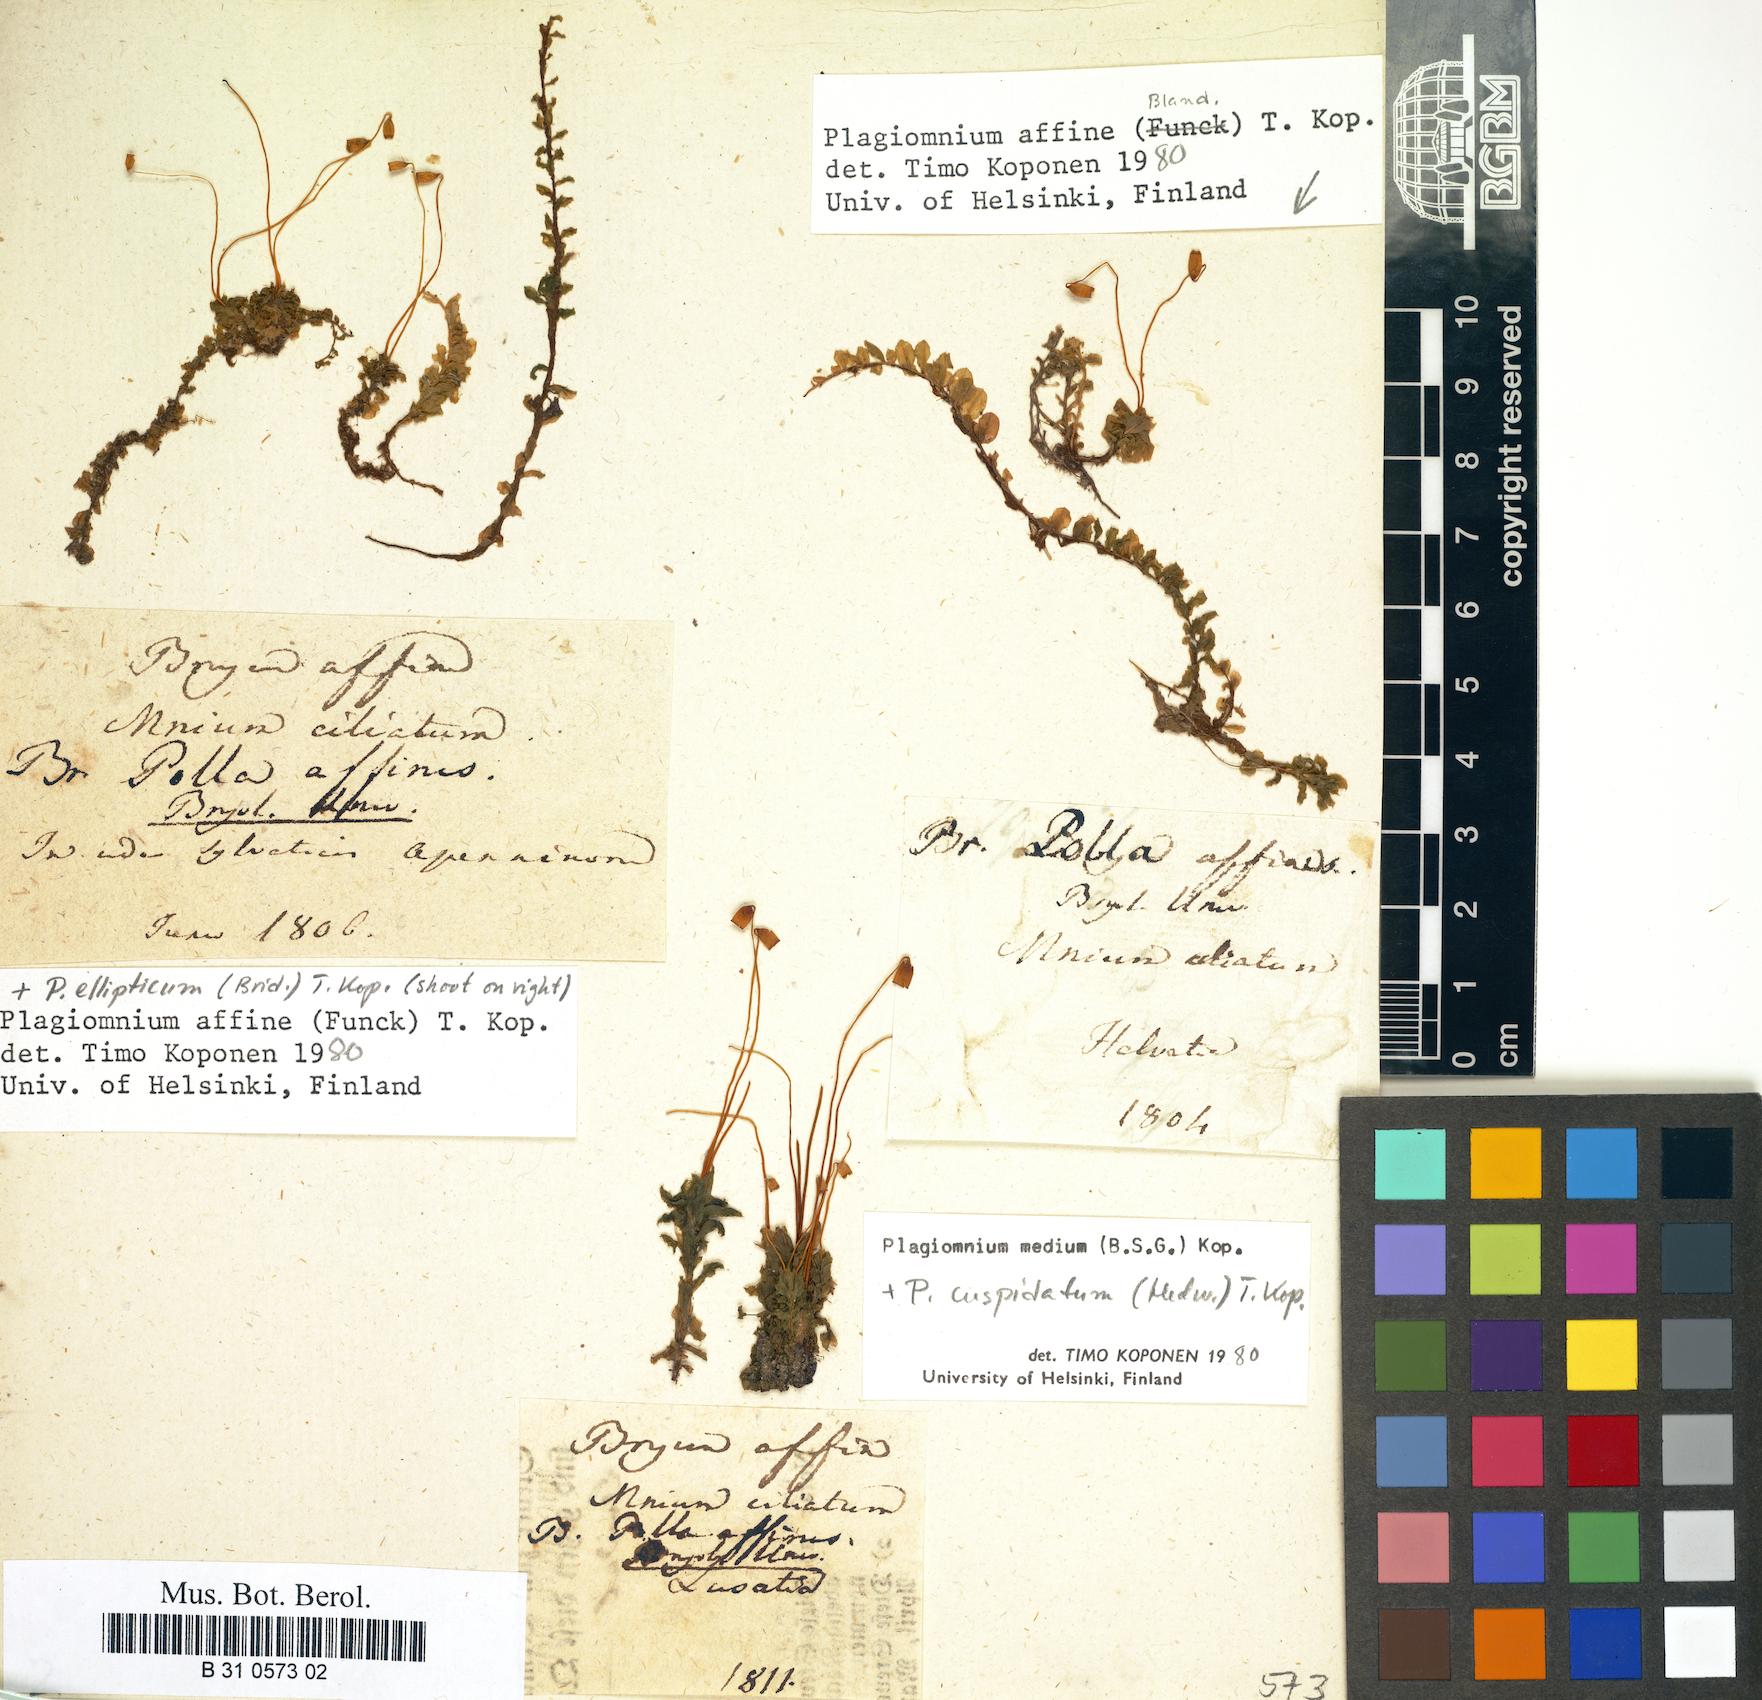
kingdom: Plantae
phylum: Bryophyta
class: Bryopsida
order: Bryales
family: Mniaceae
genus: Plagiomnium
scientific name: Plagiomnium affine
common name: Many-fruited thyme-moss
